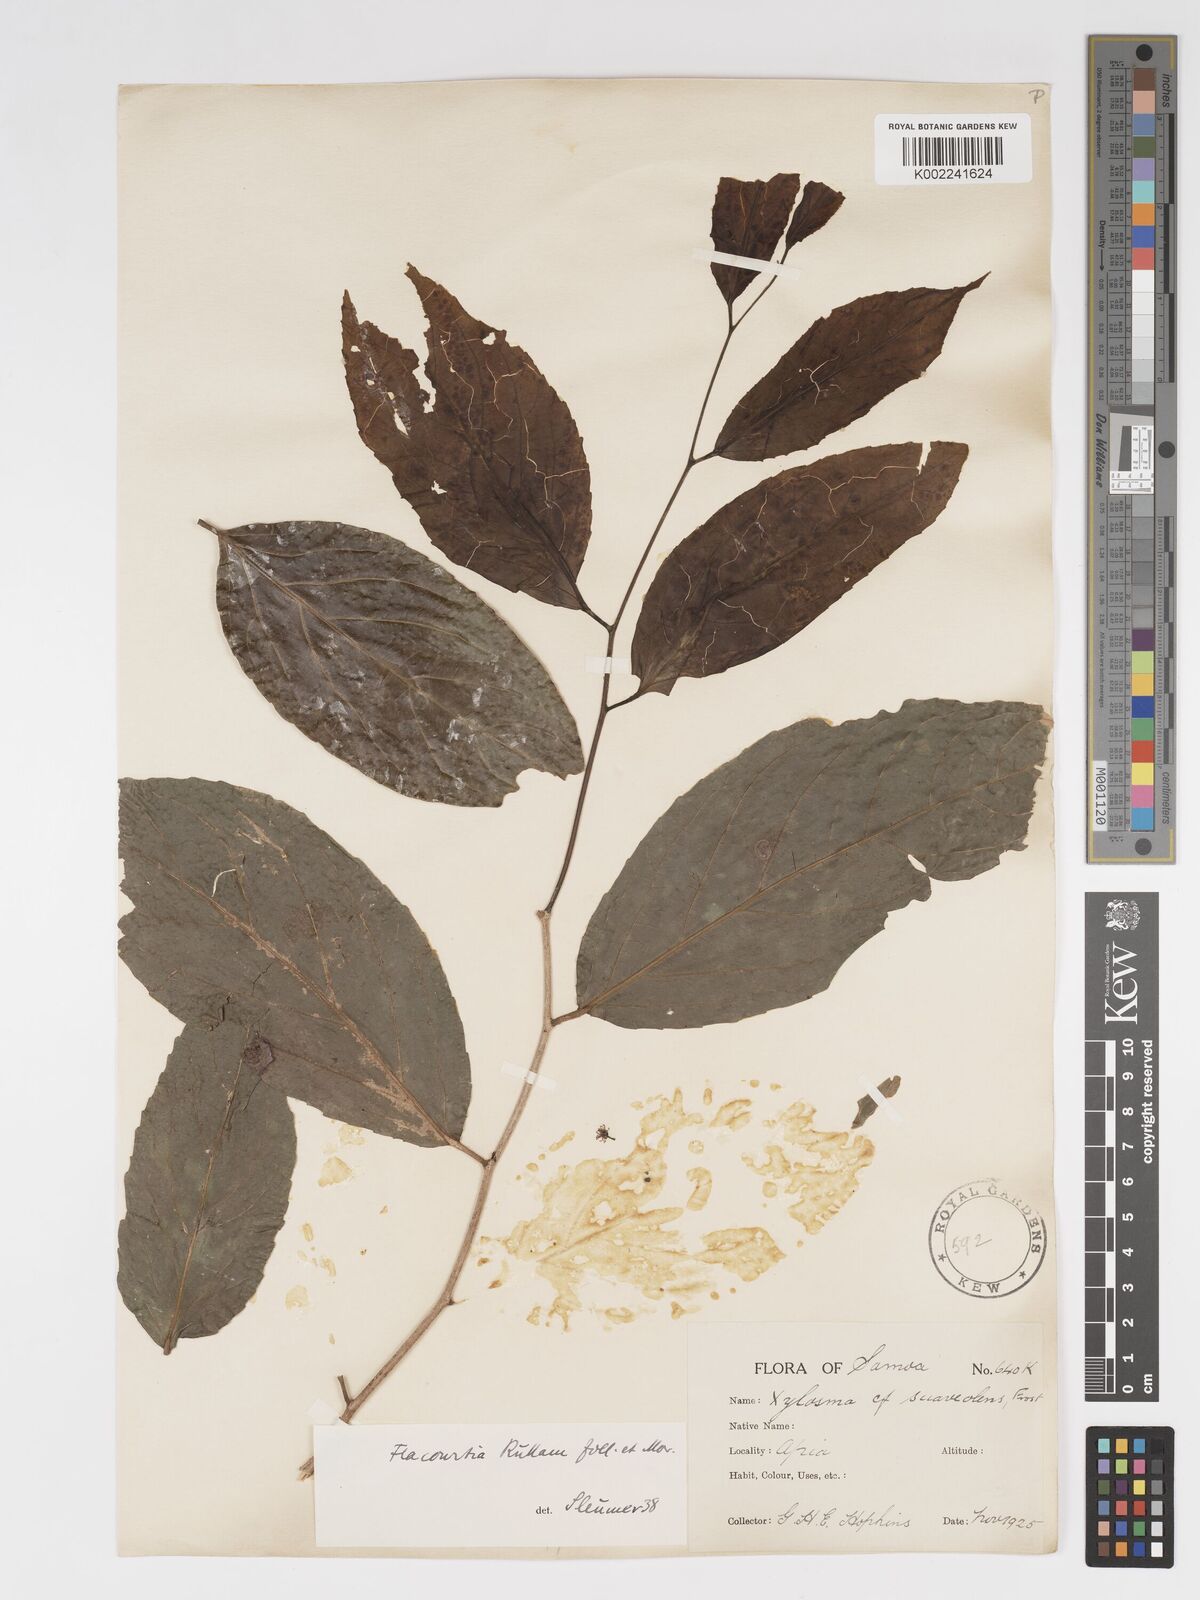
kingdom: Plantae
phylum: Tracheophyta
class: Magnoliopsida
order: Malpighiales
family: Salicaceae
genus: Flacourtia
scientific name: Flacourtia rukam
